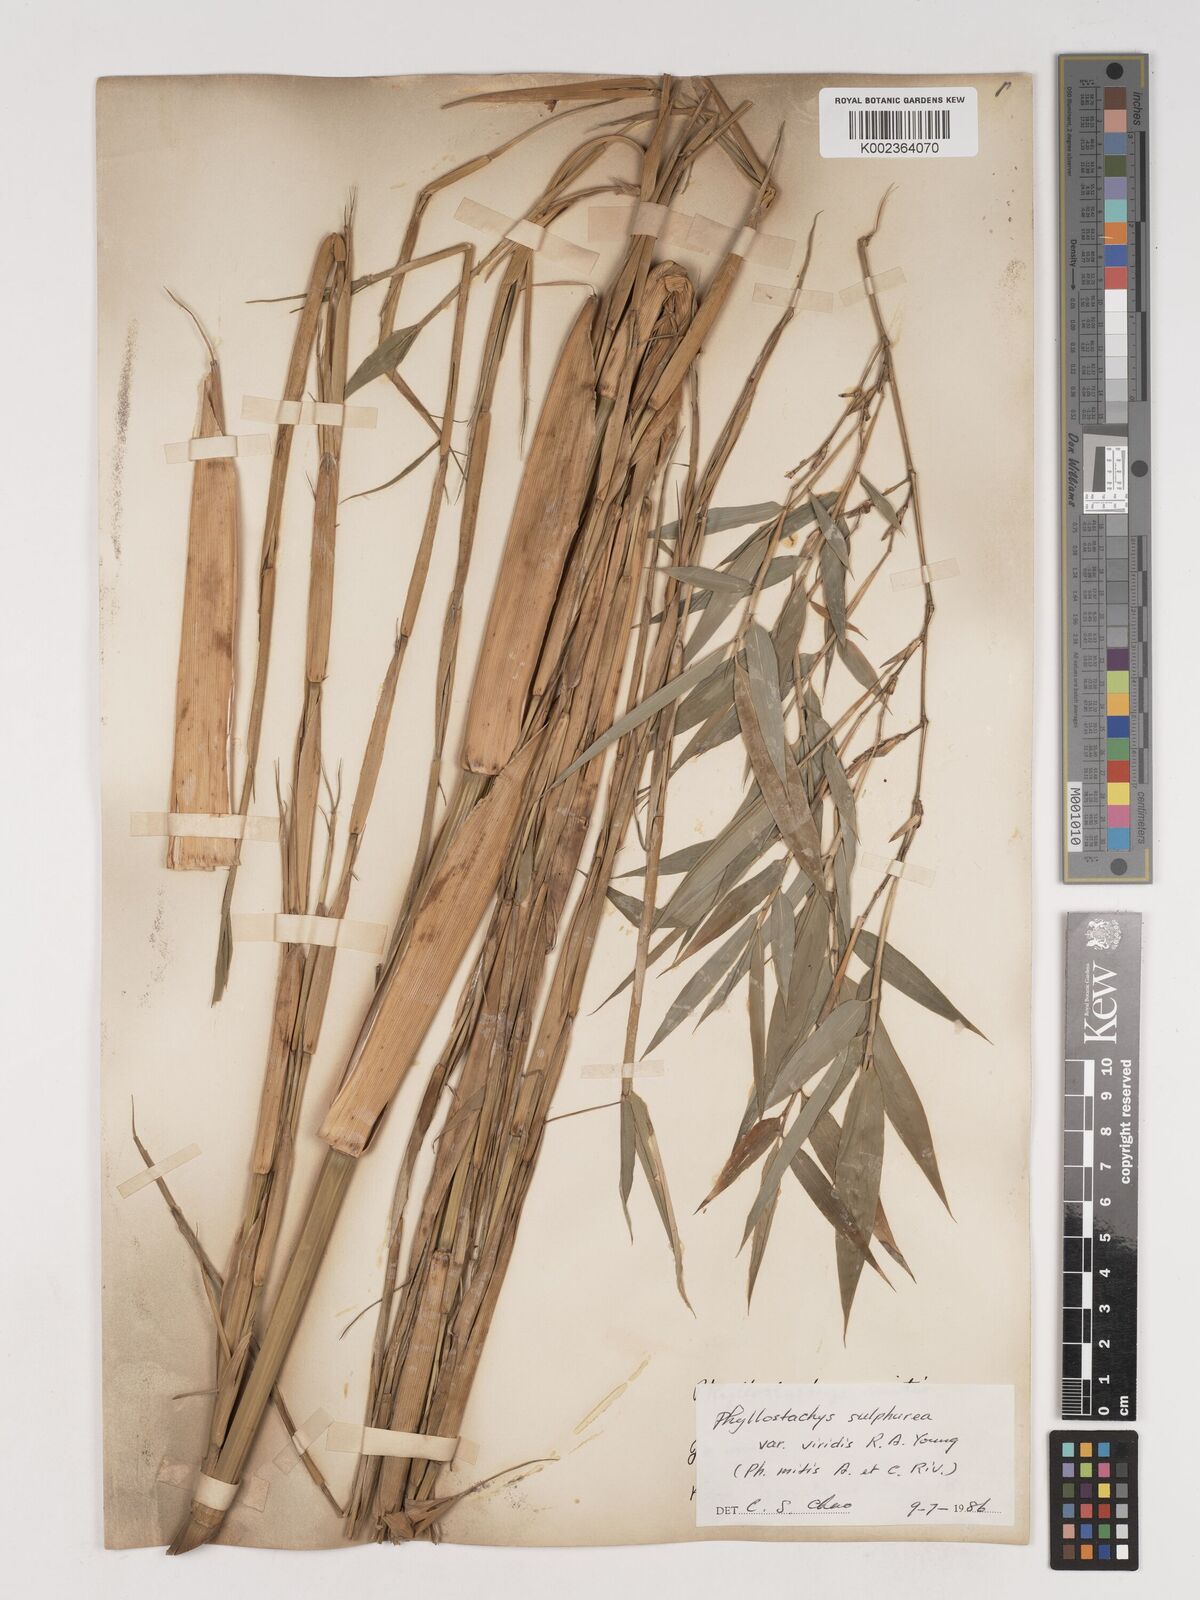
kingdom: Plantae
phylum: Tracheophyta
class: Liliopsida
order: Poales
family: Poaceae
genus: Phyllostachys
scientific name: Phyllostachys sulphurea
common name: Sulphur bamboo
